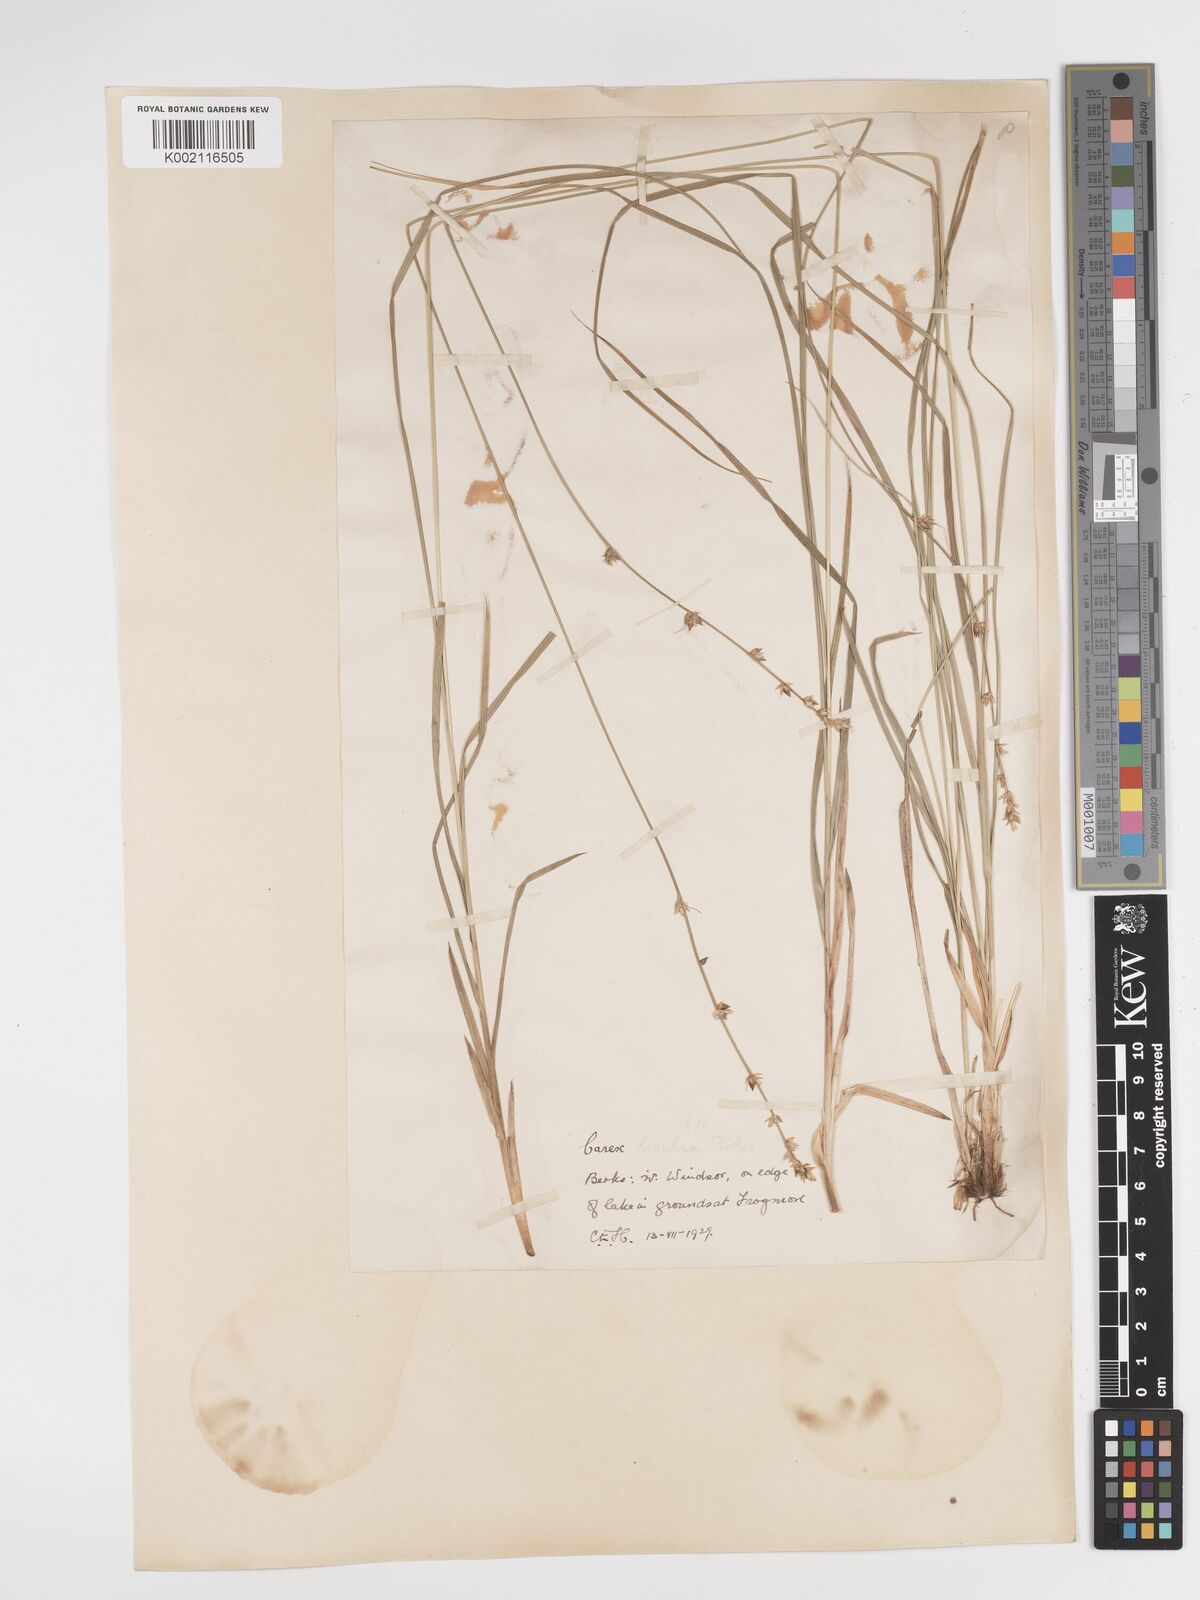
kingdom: Plantae
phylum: Tracheophyta
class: Liliopsida
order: Poales
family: Cyperaceae
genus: Carex
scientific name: Carex divulsa
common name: Grassland sedge
